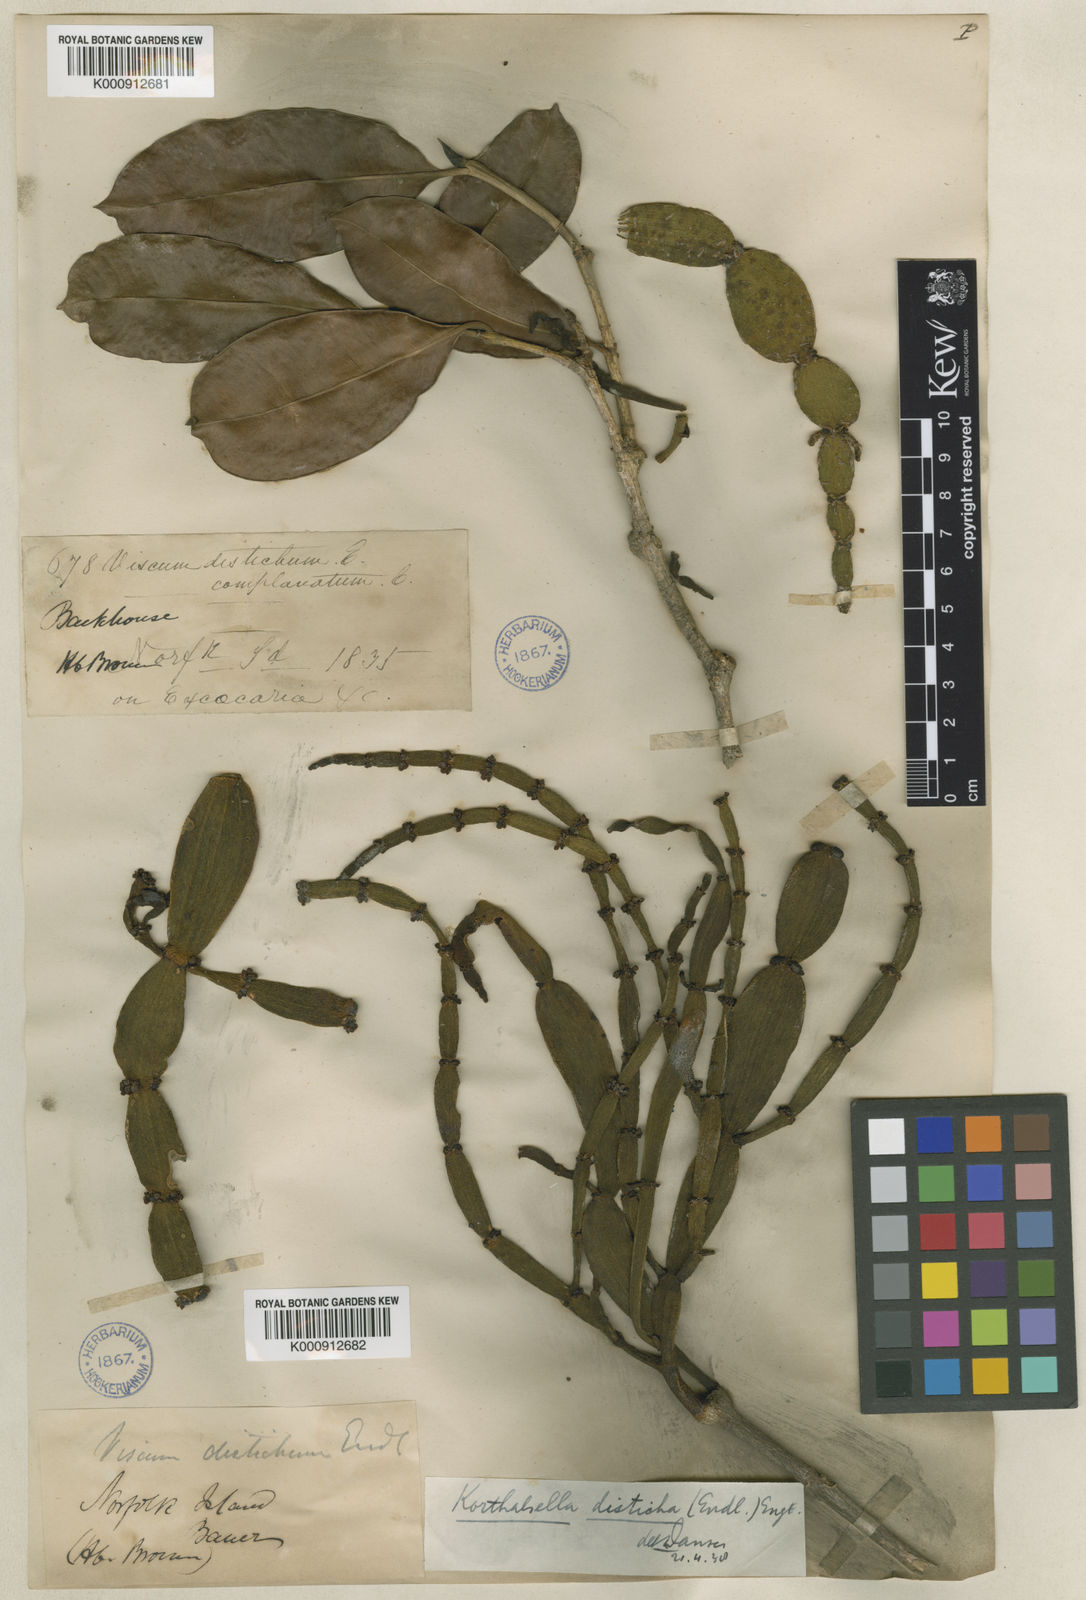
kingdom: Plantae
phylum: Tracheophyta
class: Magnoliopsida
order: Santalales
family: Viscaceae
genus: Korthalsella
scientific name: Korthalsella disticha
